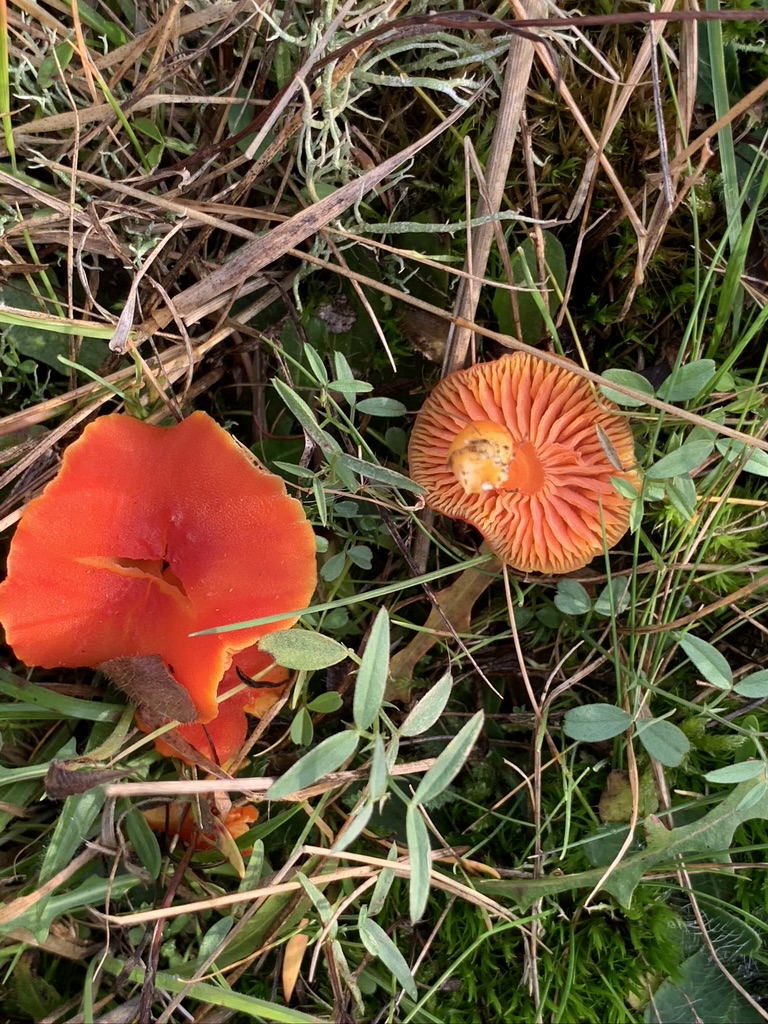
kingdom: Fungi
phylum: Basidiomycota
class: Agaricomycetes
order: Agaricales
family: Hygrophoraceae
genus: Hygrocybe
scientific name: Hygrocybe miniata
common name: mønje-vokshat
